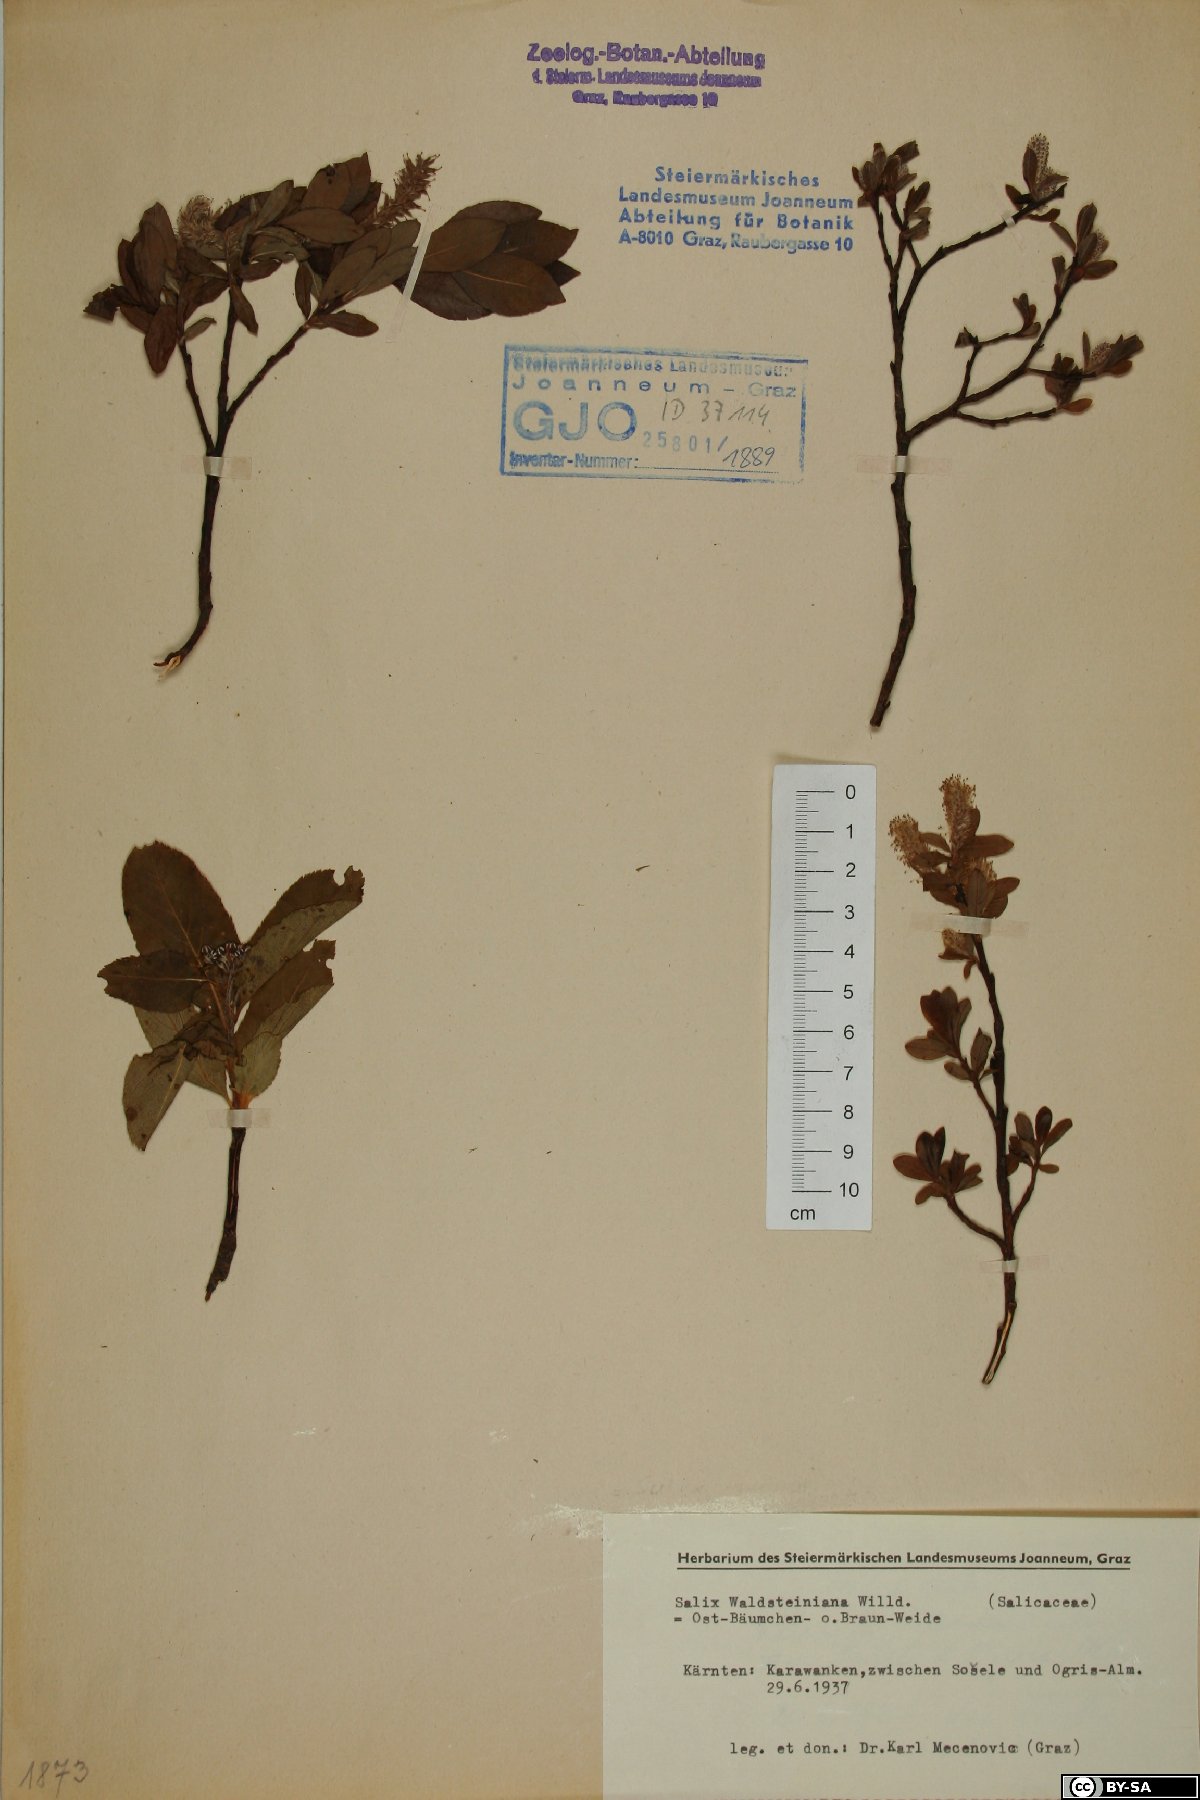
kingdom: Plantae
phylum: Tracheophyta
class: Magnoliopsida
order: Malpighiales
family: Salicaceae
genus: Salix
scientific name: Salix waldsteiniana
